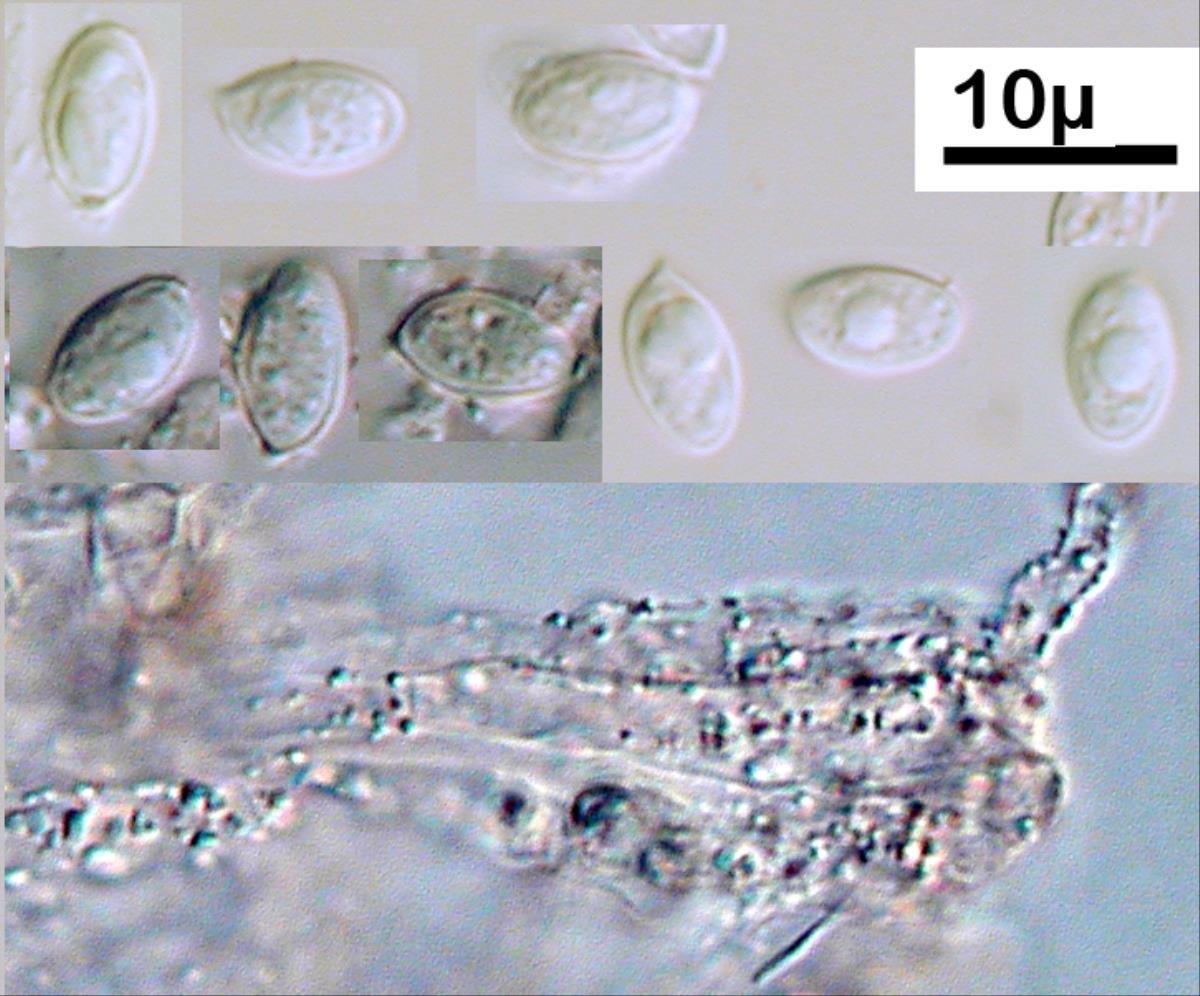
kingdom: Fungi
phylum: Basidiomycota
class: Agaricomycetes
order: Agaricales
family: Entolomataceae
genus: Clitopilus
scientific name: Clitopilus hobsonii
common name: Miller's oysterling
